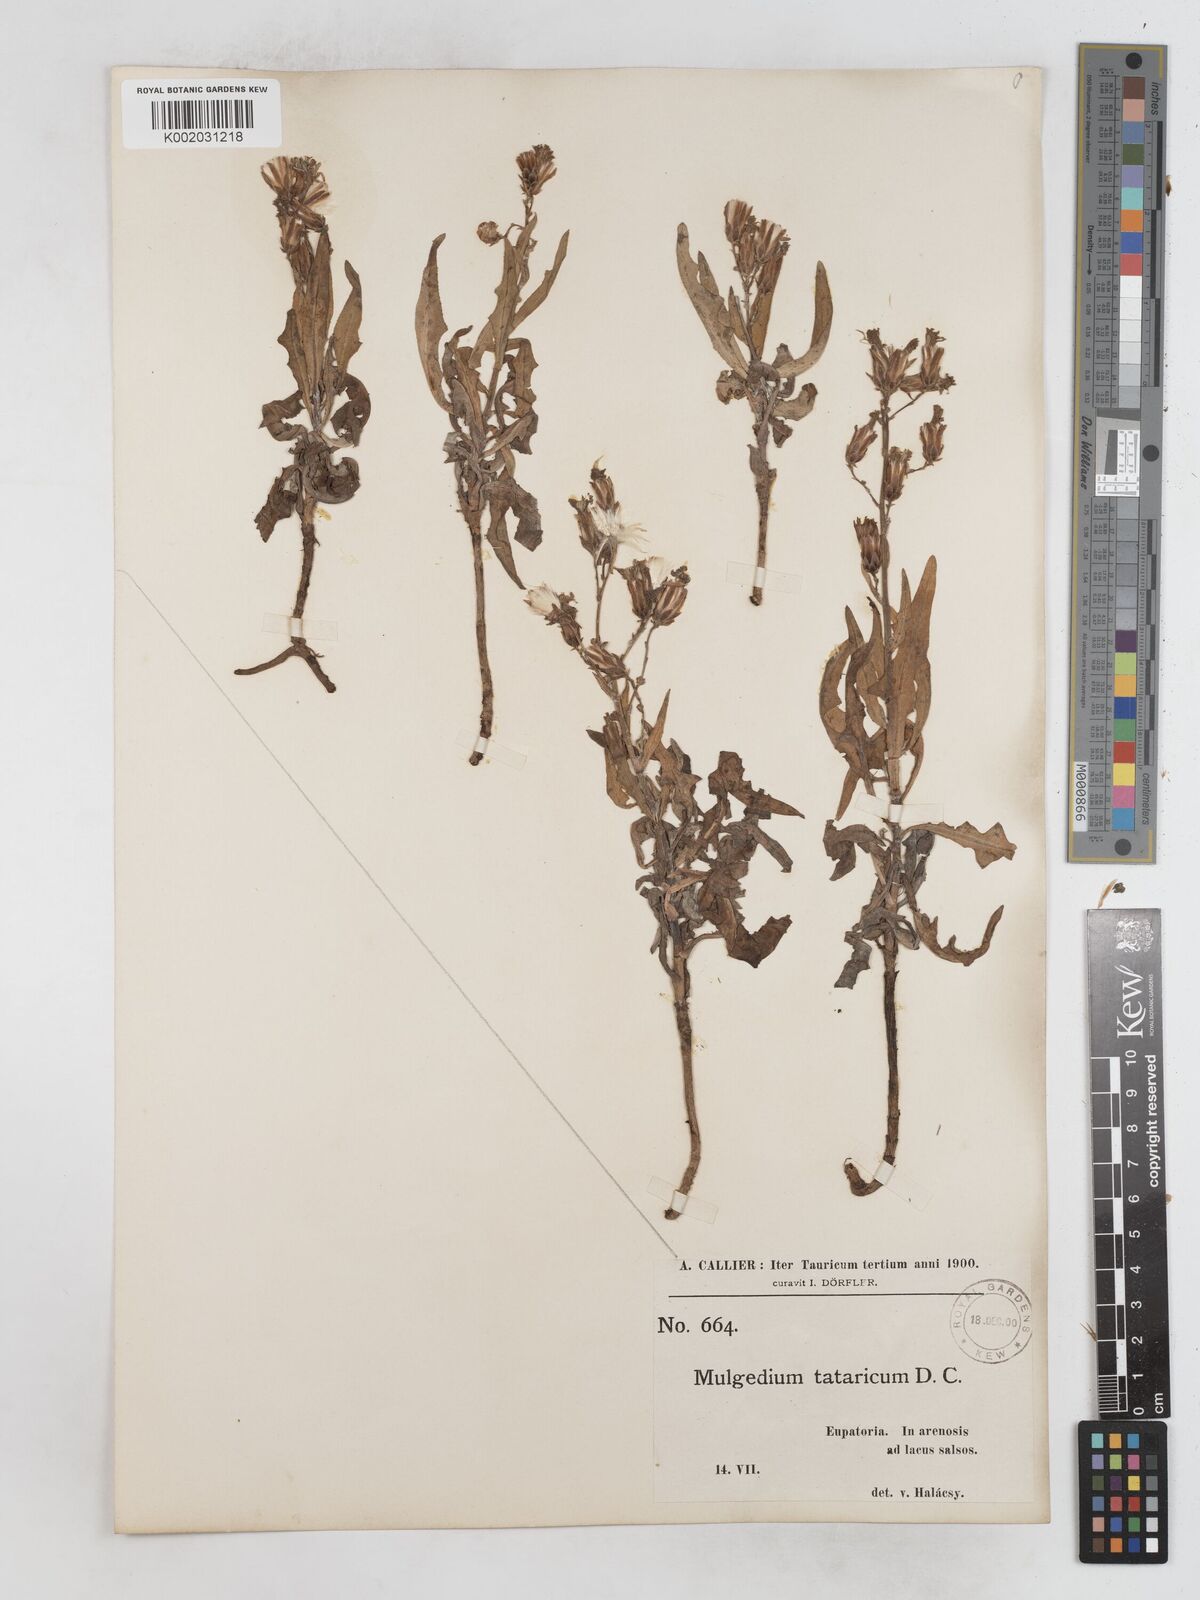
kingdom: Plantae
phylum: Tracheophyta
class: Magnoliopsida
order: Asterales
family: Asteraceae
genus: Lactuca
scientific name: Lactuca tatarica
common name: Blue lettuce
